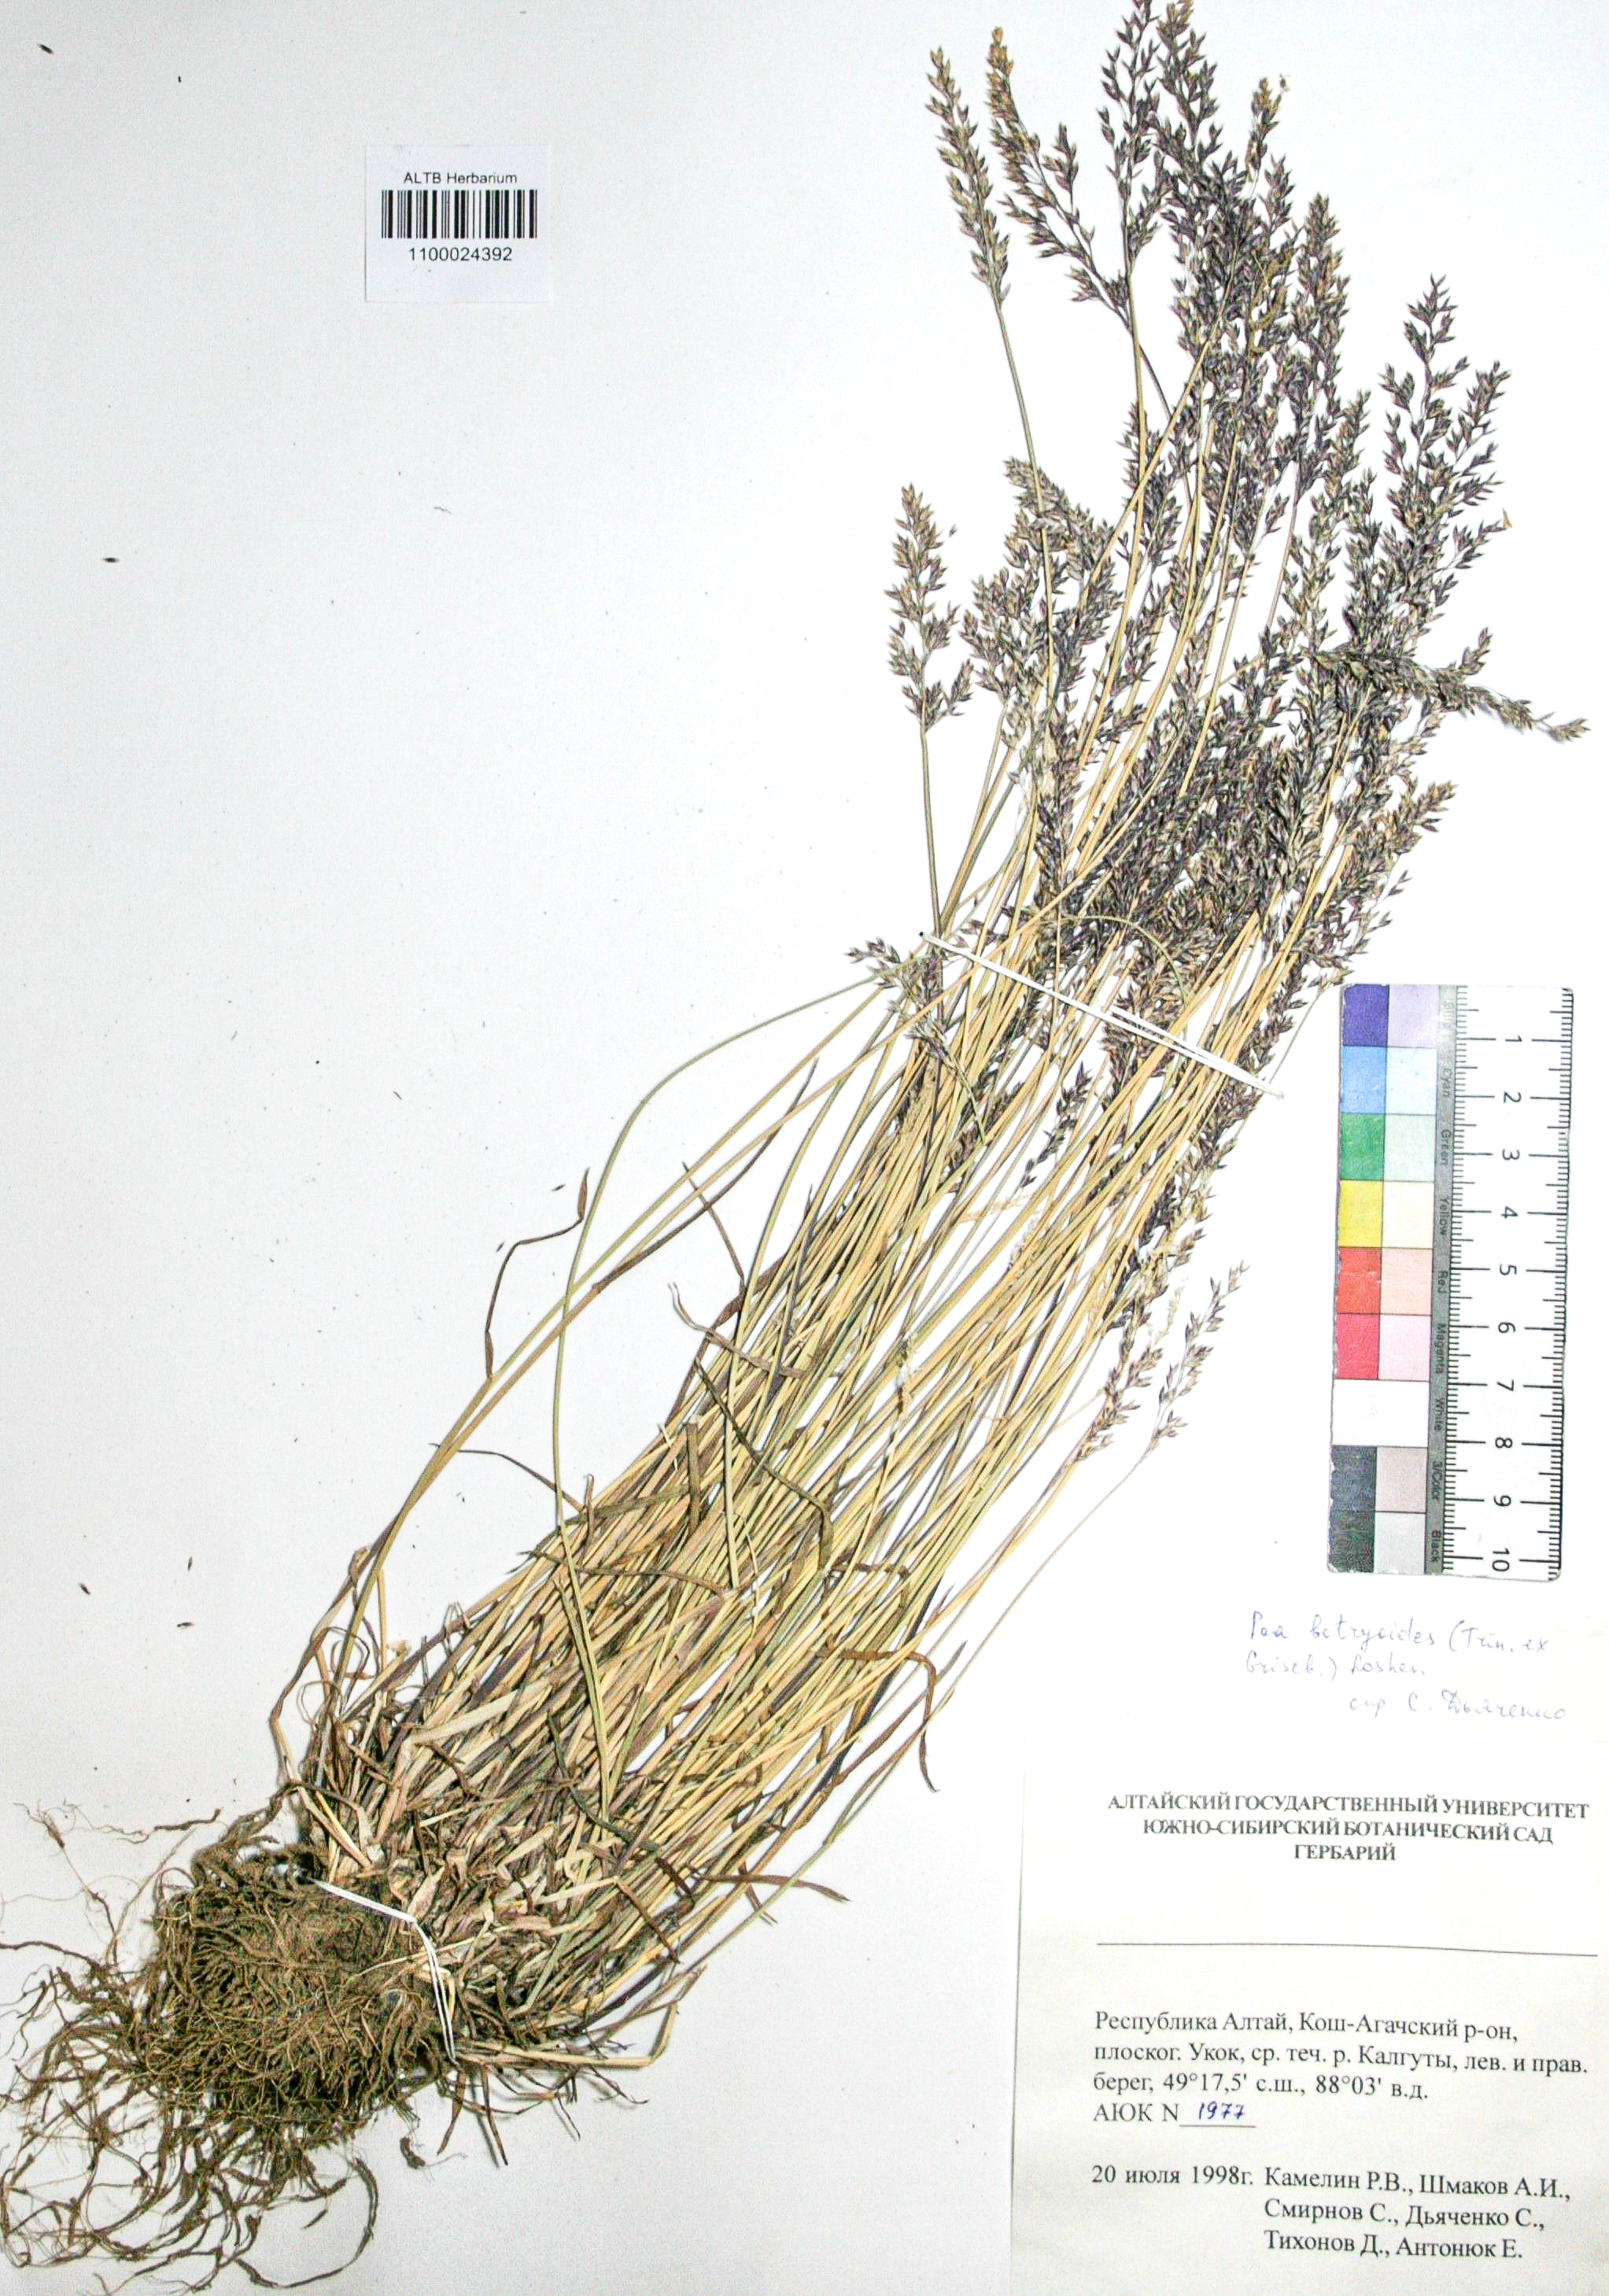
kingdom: Plantae
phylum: Tracheophyta
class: Liliopsida
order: Poales
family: Poaceae
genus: Poa
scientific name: Poa attenuata
